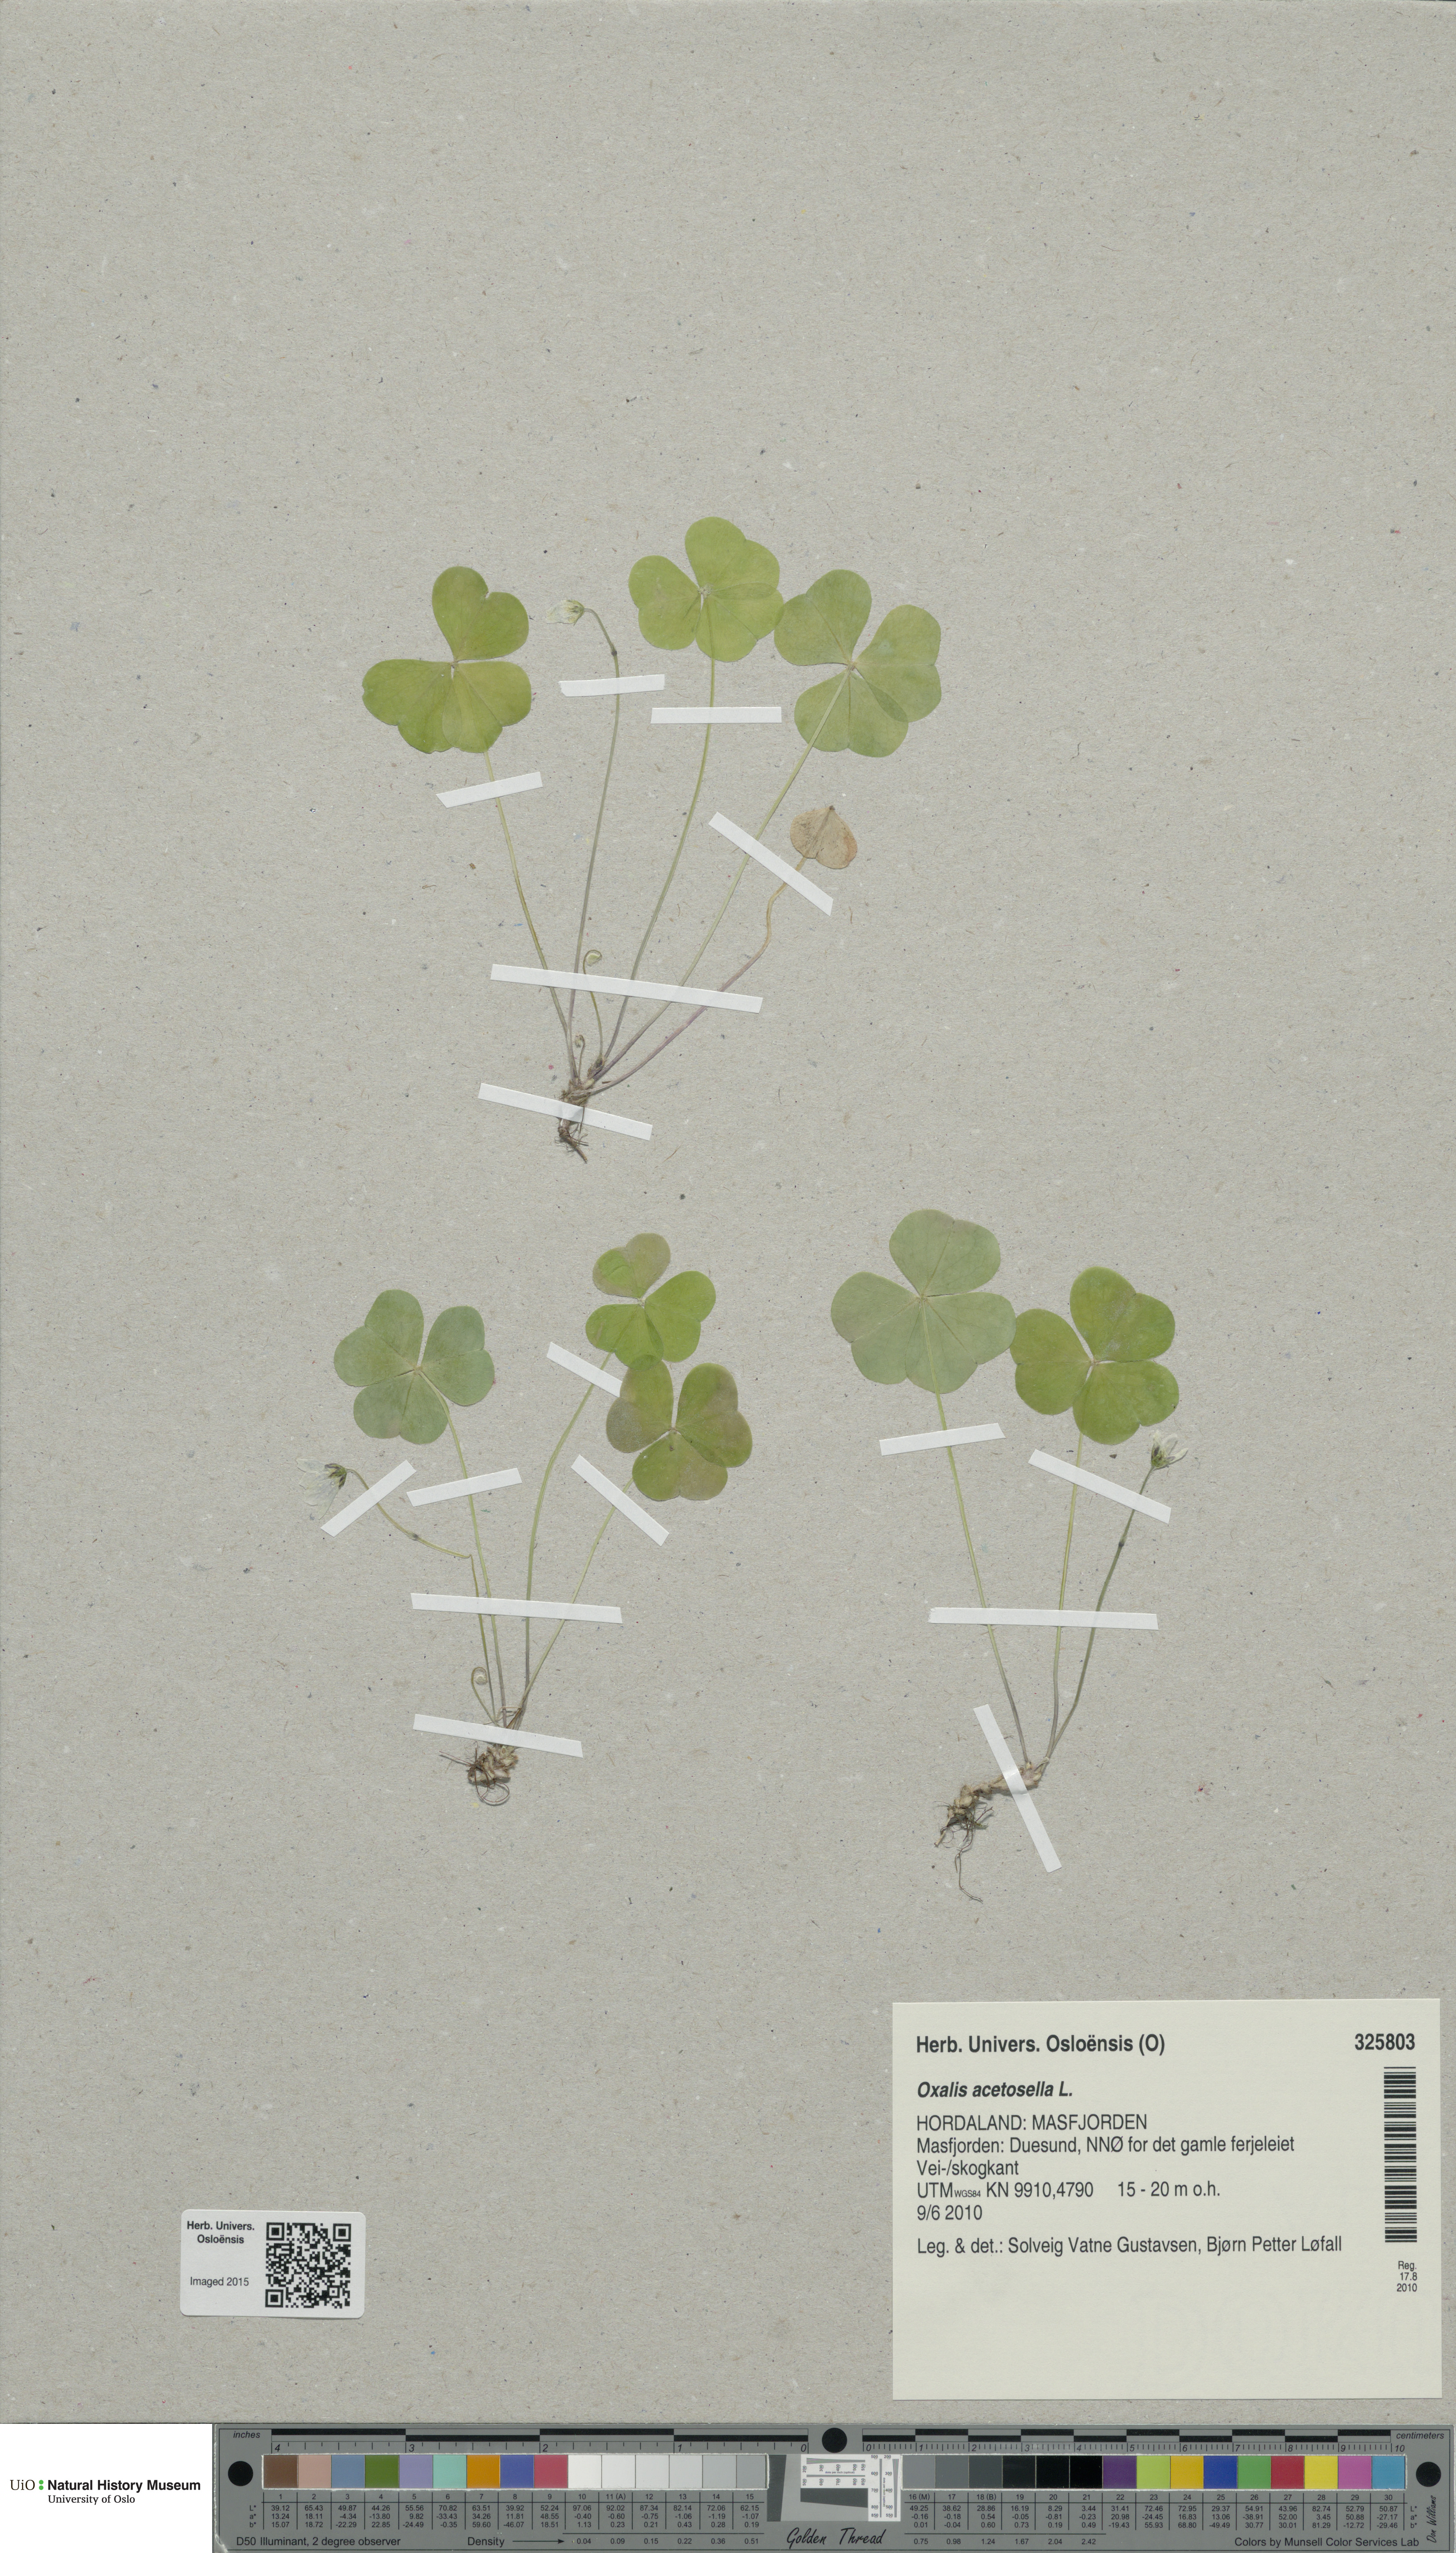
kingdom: Plantae
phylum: Tracheophyta
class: Magnoliopsida
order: Oxalidales
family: Oxalidaceae
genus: Oxalis
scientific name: Oxalis acetosella
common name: Wood-sorrel
